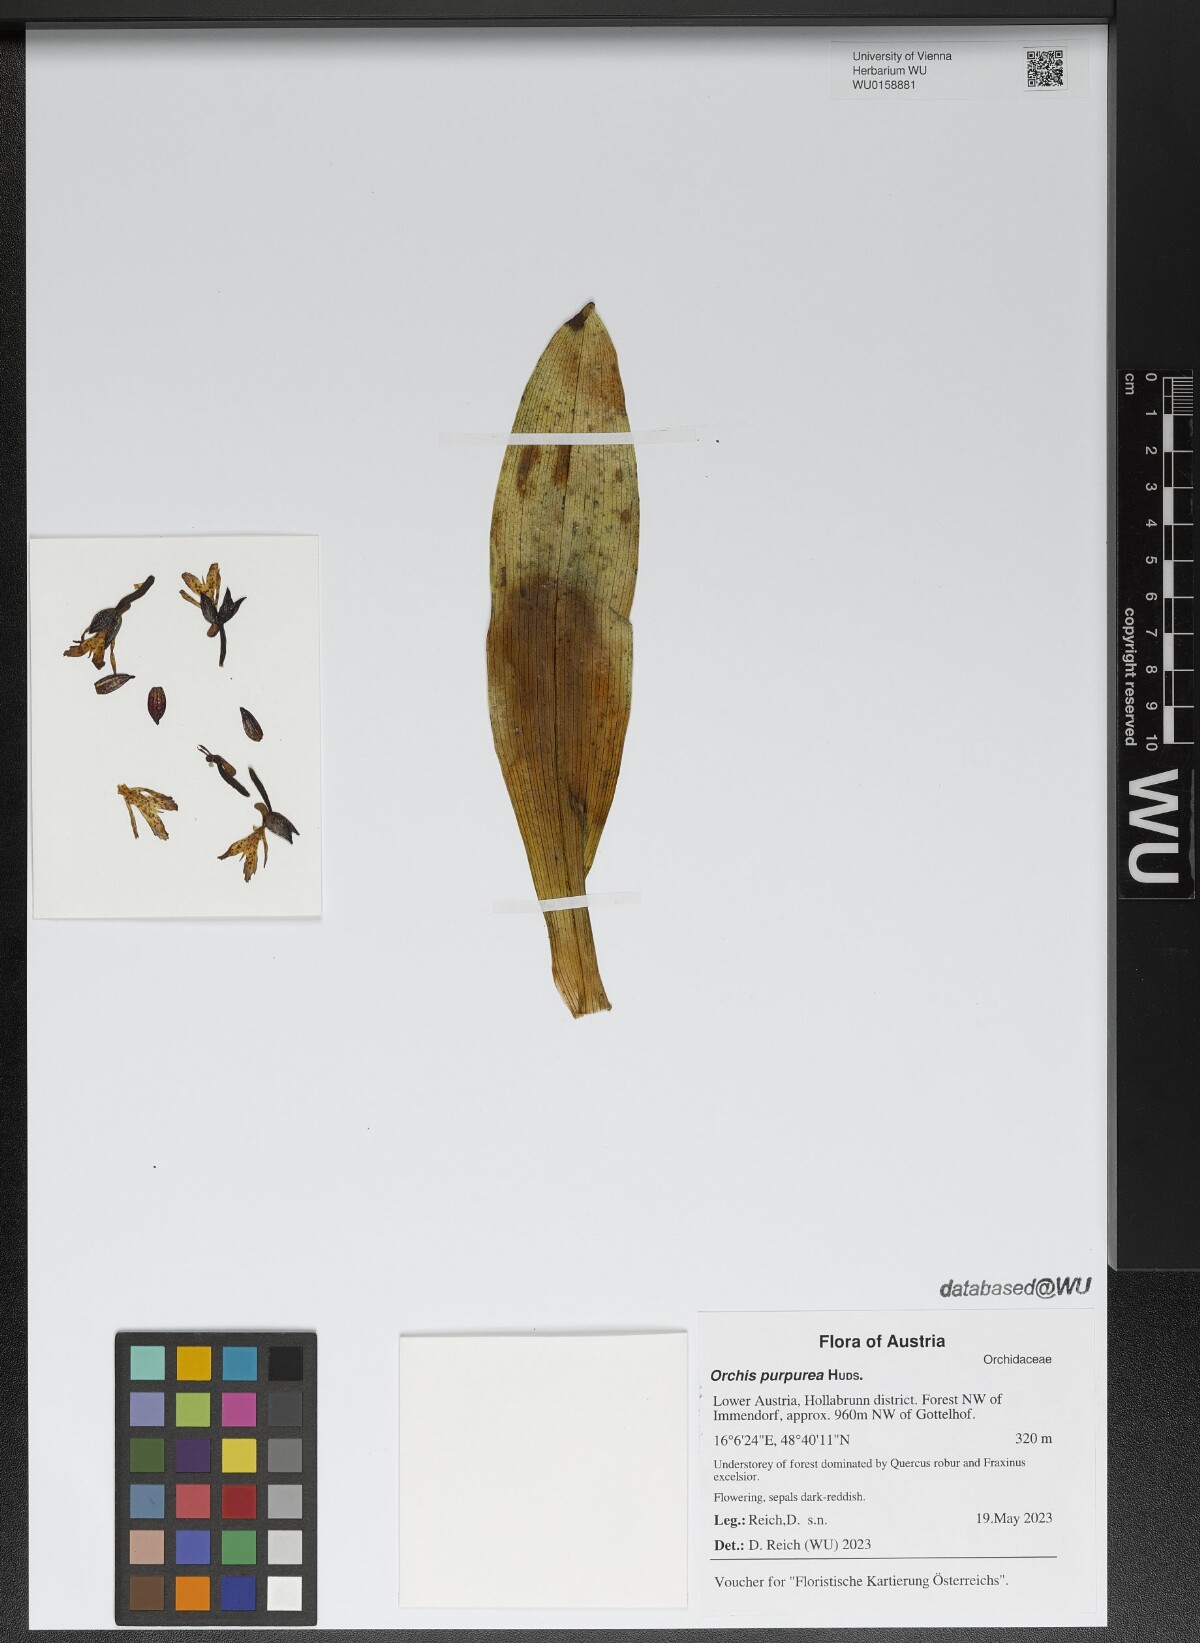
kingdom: Plantae
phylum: Tracheophyta
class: Liliopsida
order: Asparagales
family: Orchidaceae
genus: Orchis
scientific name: Orchis purpurea
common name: Lady orchid
